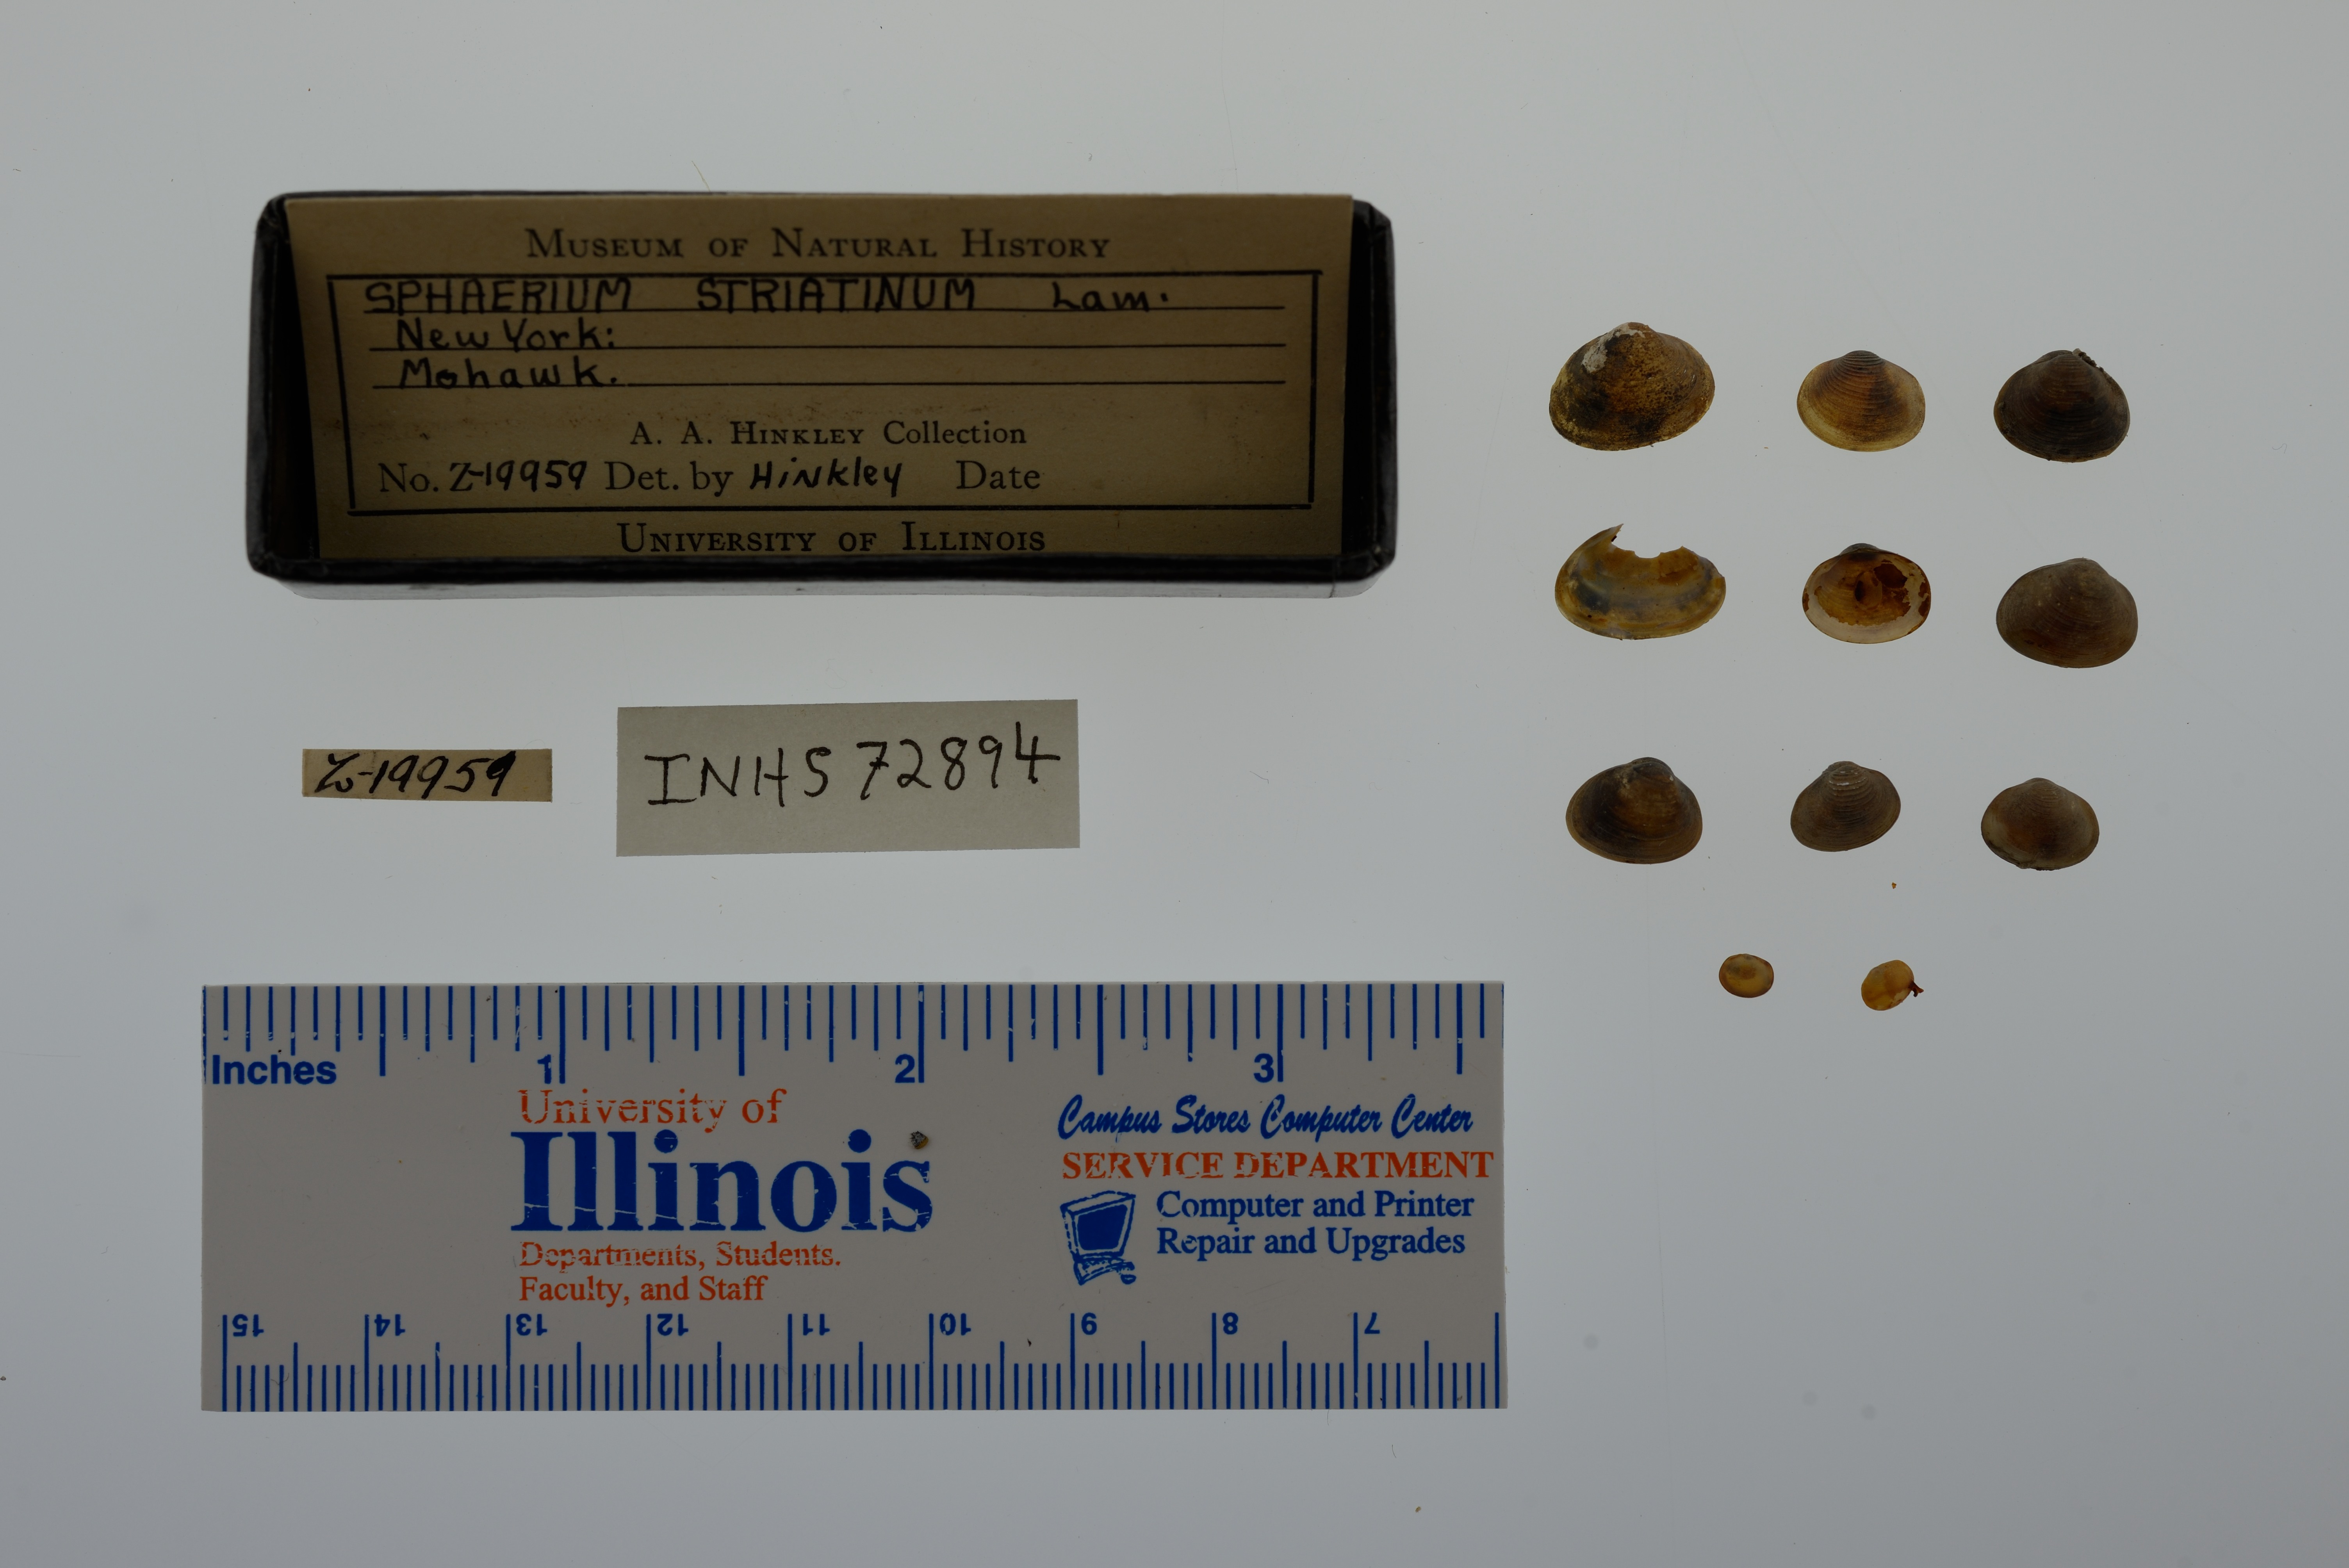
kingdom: Animalia
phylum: Mollusca
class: Bivalvia
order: Sphaeriida
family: Sphaeriidae
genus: Sphaerium
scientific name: Sphaerium striatinum
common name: Striated fingernailclam
